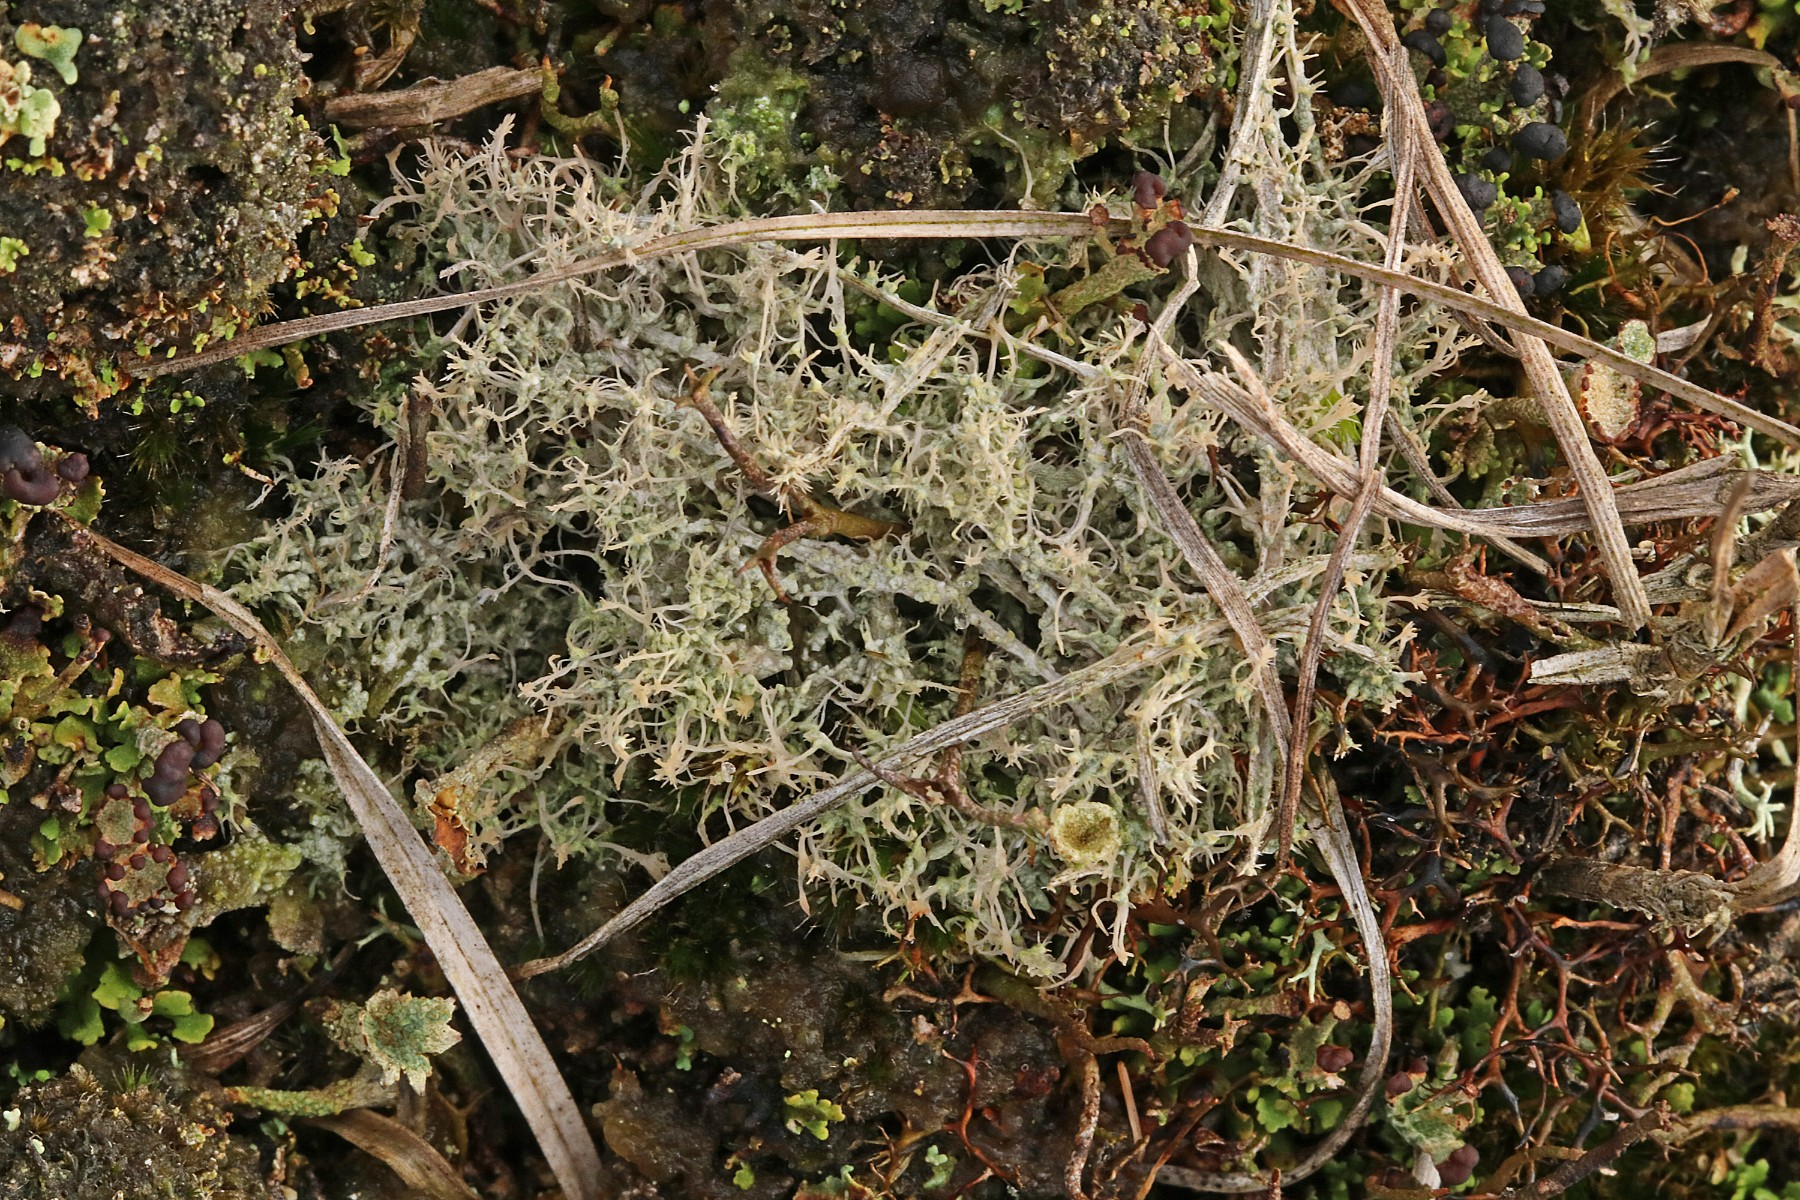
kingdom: Fungi
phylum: Ascomycota
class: Lecanoromycetes
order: Pertusariales
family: Ochrolechiaceae
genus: Ochrolechia
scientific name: Ochrolechia frigida
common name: fjeld-blegskivelav
